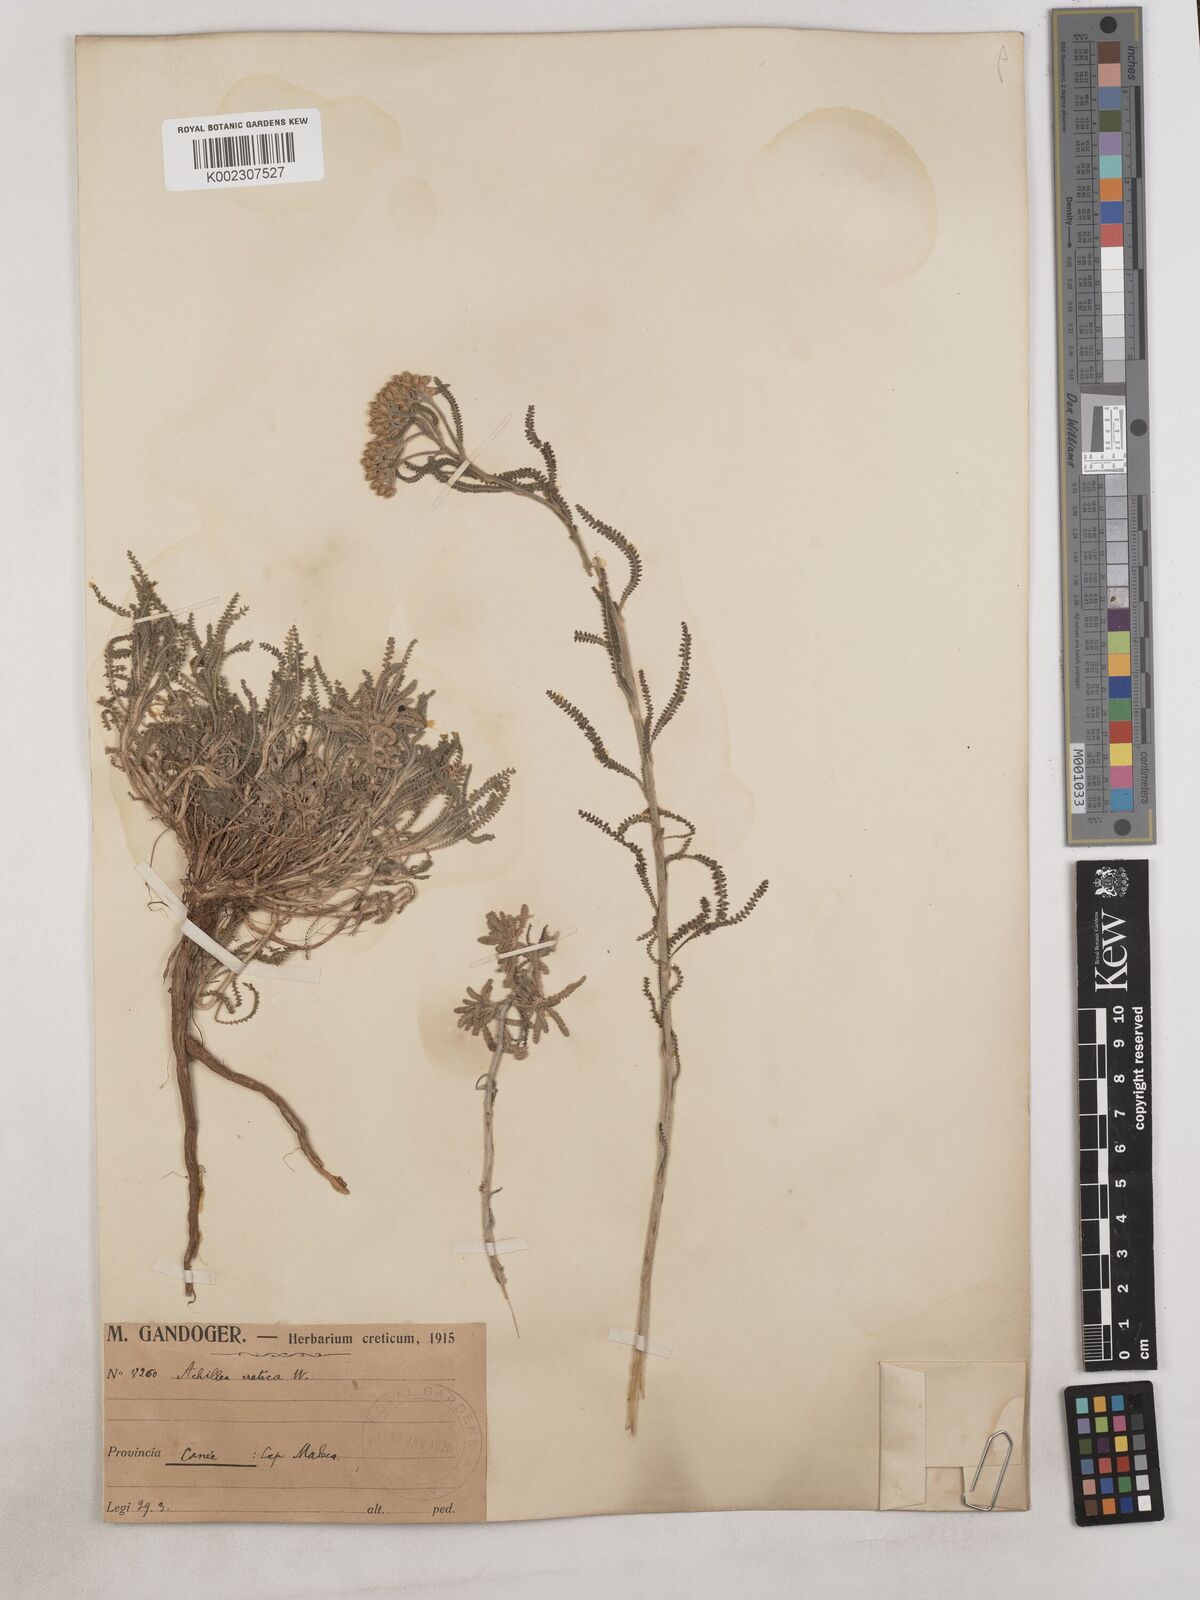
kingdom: Plantae
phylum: Tracheophyta
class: Magnoliopsida
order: Asterales
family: Asteraceae
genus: Achillea
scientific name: Achillea cretica
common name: Chamomile-leaved lavender-cotton
